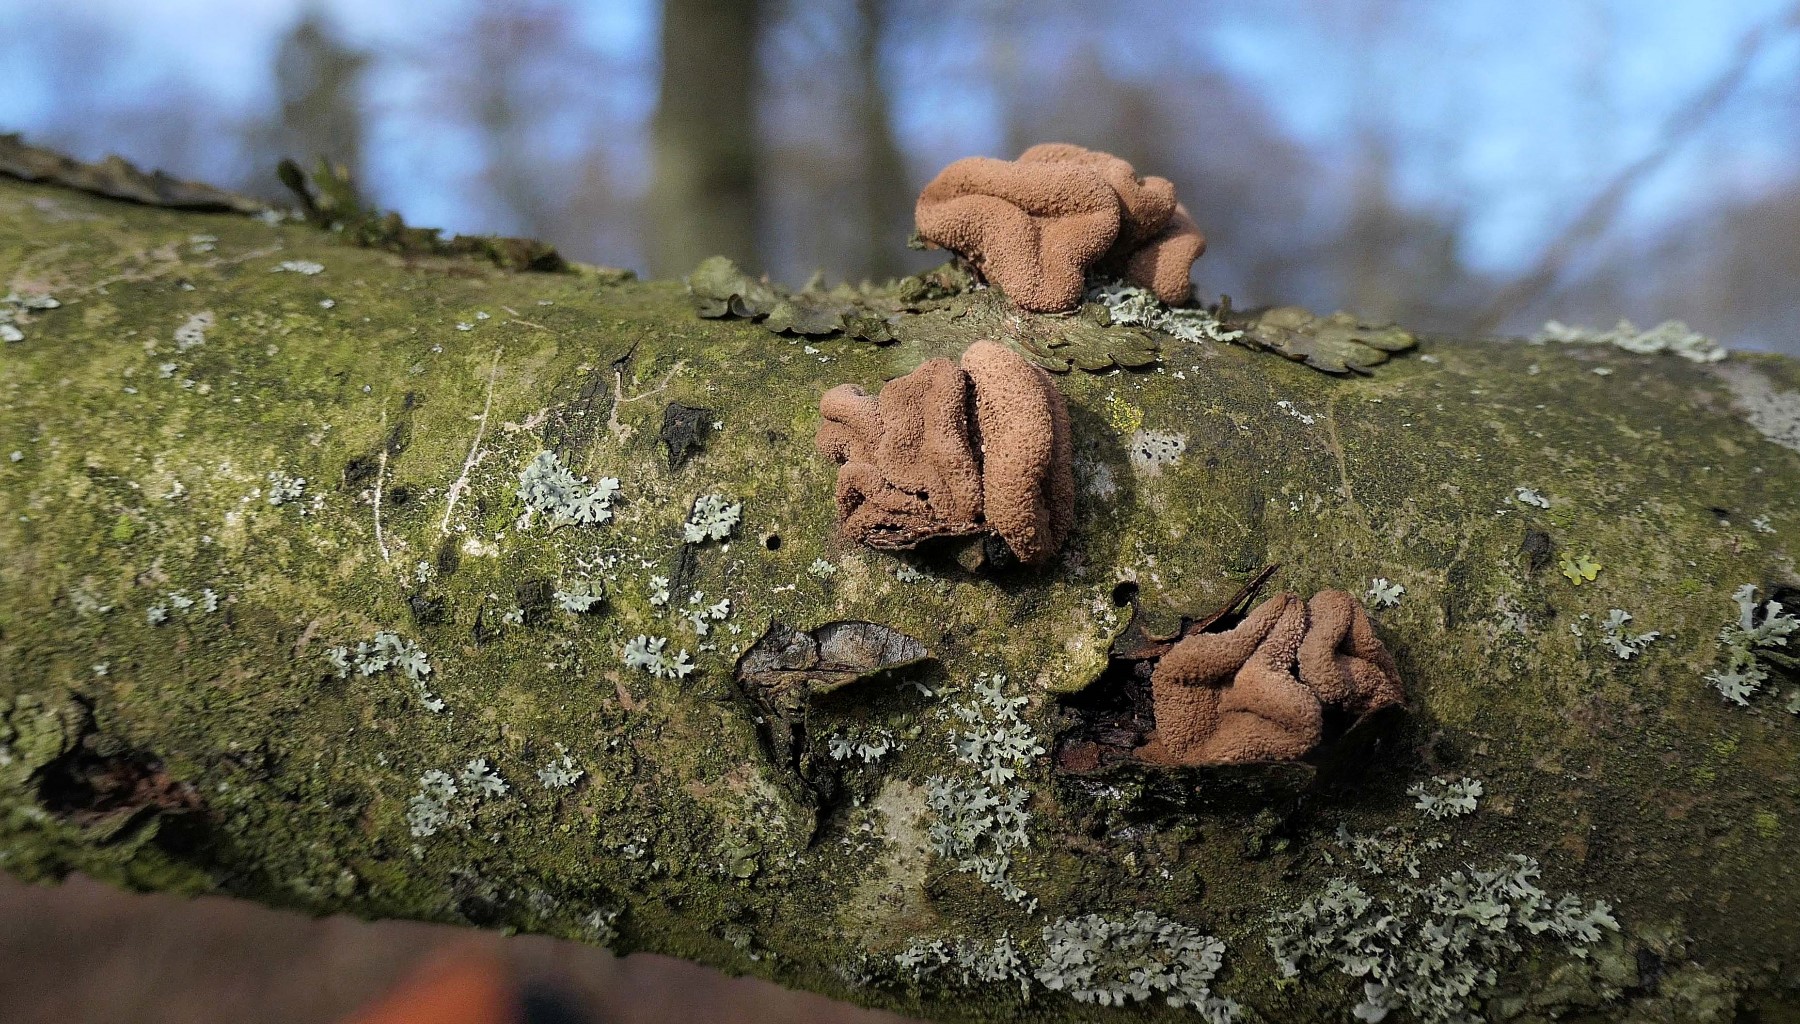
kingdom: Fungi
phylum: Ascomycota
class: Leotiomycetes
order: Helotiales
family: Cenangiaceae
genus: Encoelia
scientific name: Encoelia furfuracea
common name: hassel-læderskive
